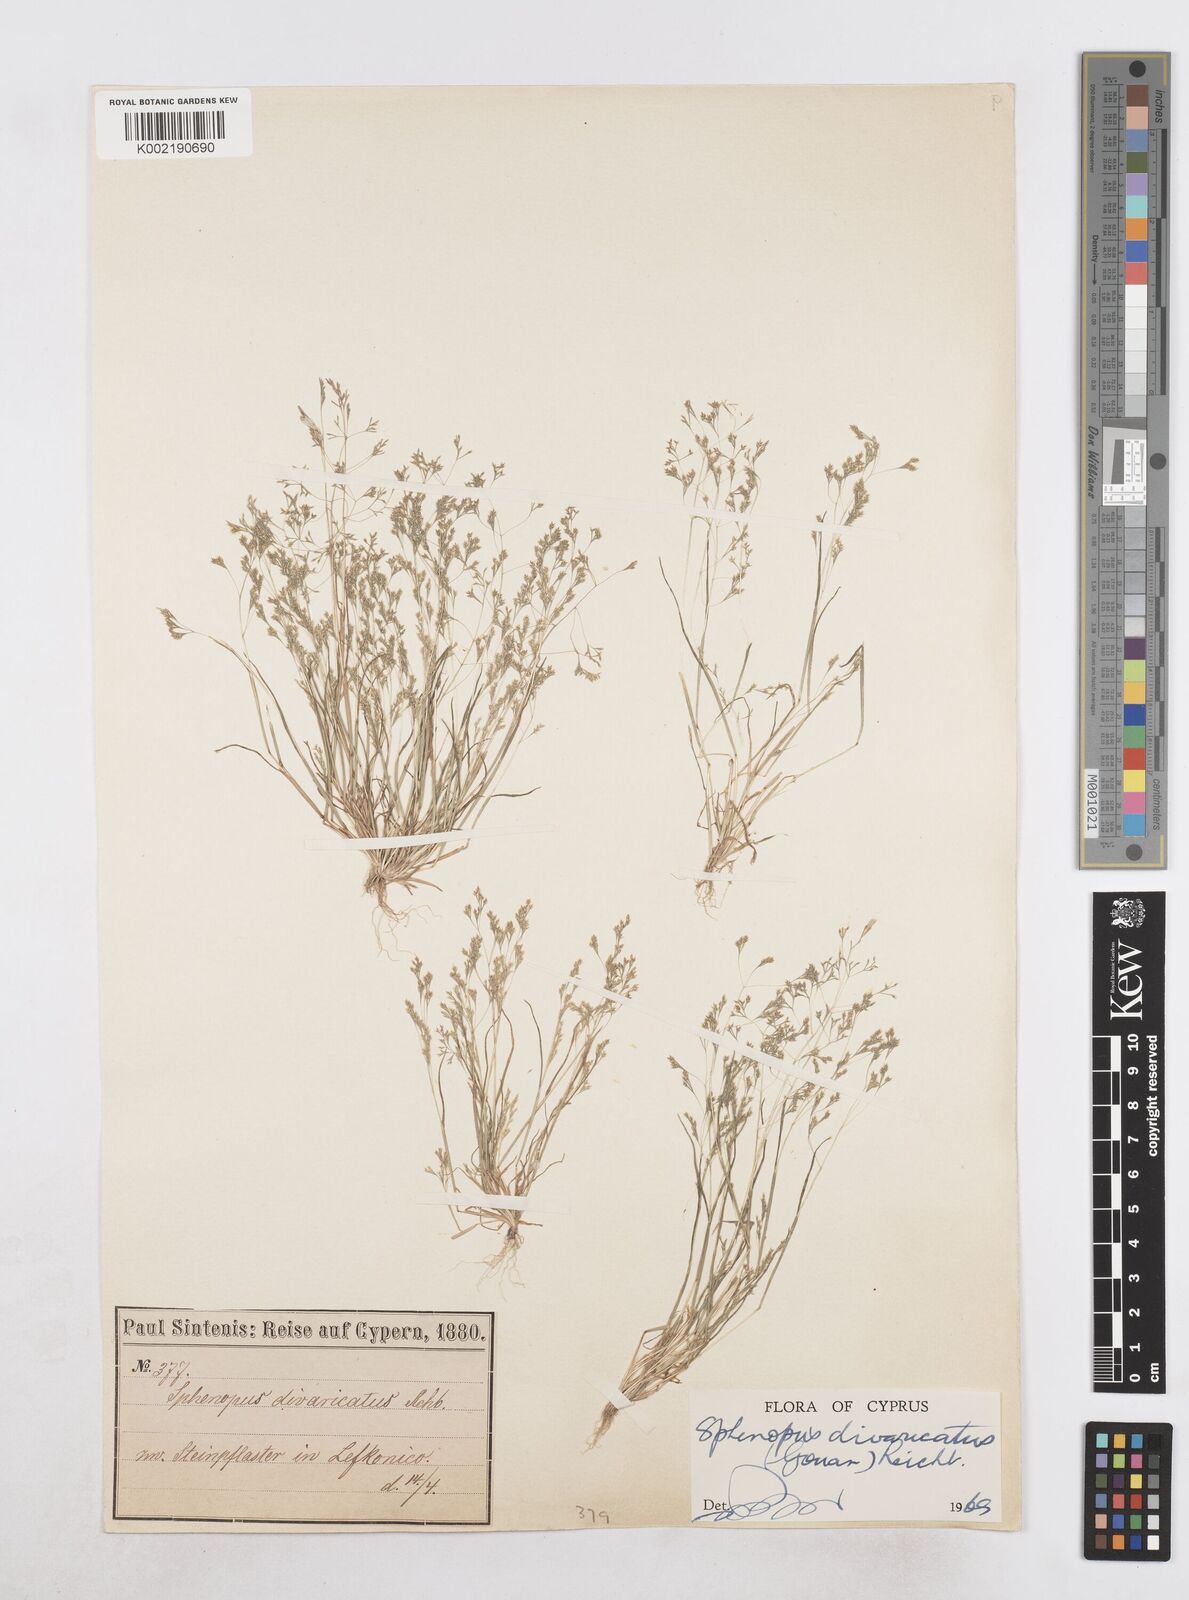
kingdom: Plantae
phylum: Tracheophyta
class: Liliopsida
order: Poales
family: Poaceae
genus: Sphenopus
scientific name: Sphenopus divaricatus
